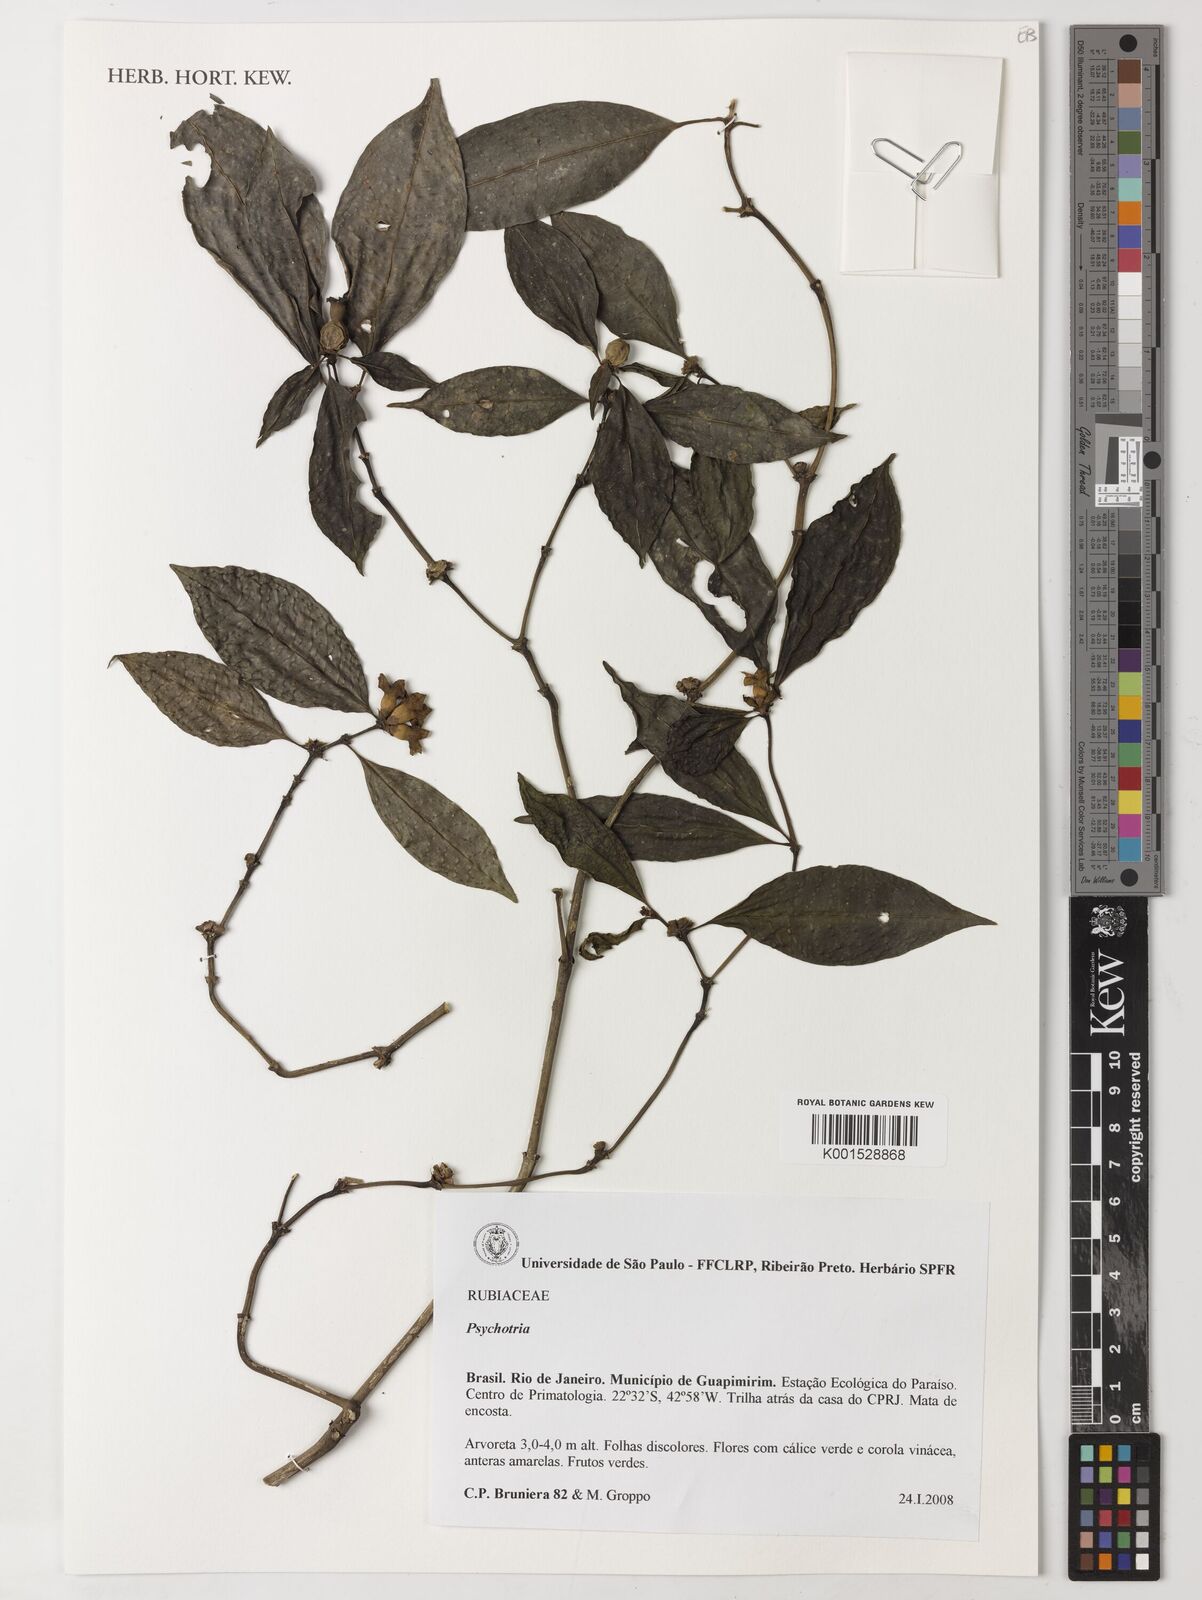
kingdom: Plantae
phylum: Tracheophyta
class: Magnoliopsida
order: Gentianales
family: Rubiaceae
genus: Psychotria
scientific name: Psychotria
